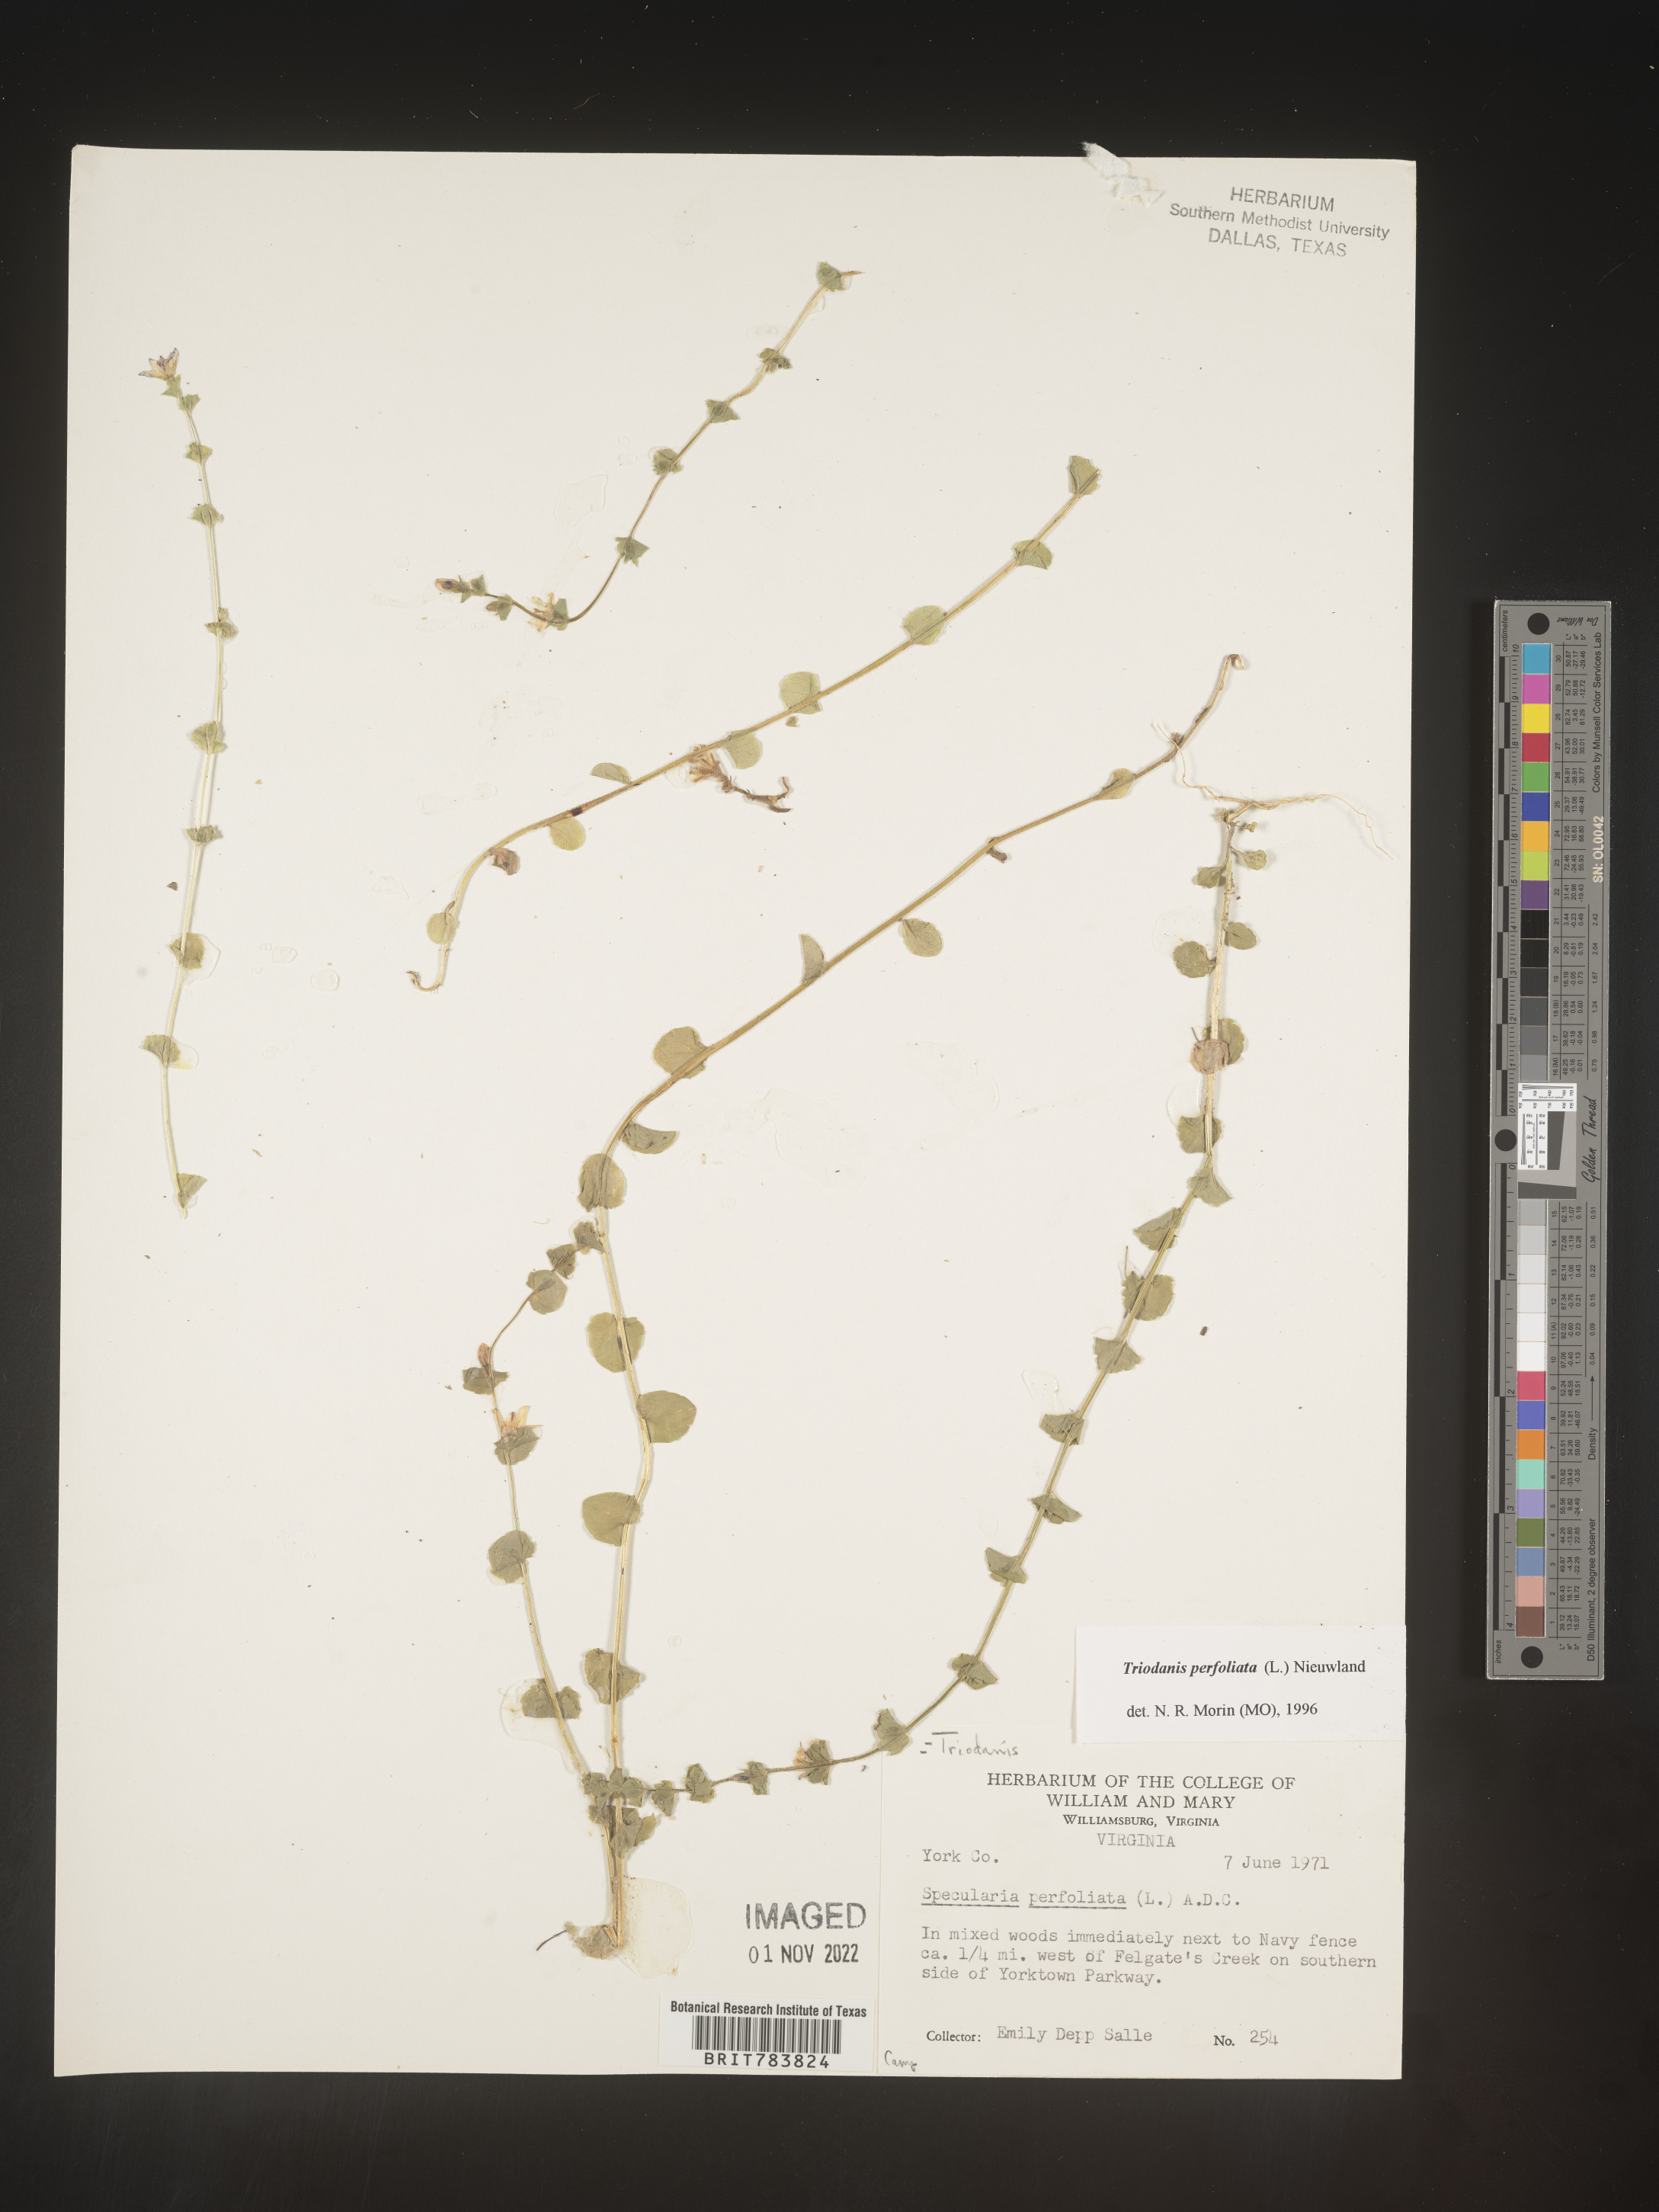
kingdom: Plantae
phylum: Tracheophyta
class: Magnoliopsida
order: Asterales
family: Campanulaceae
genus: Triodanis
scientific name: Triodanis perfoliata
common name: Clasping venus' looking-glass
